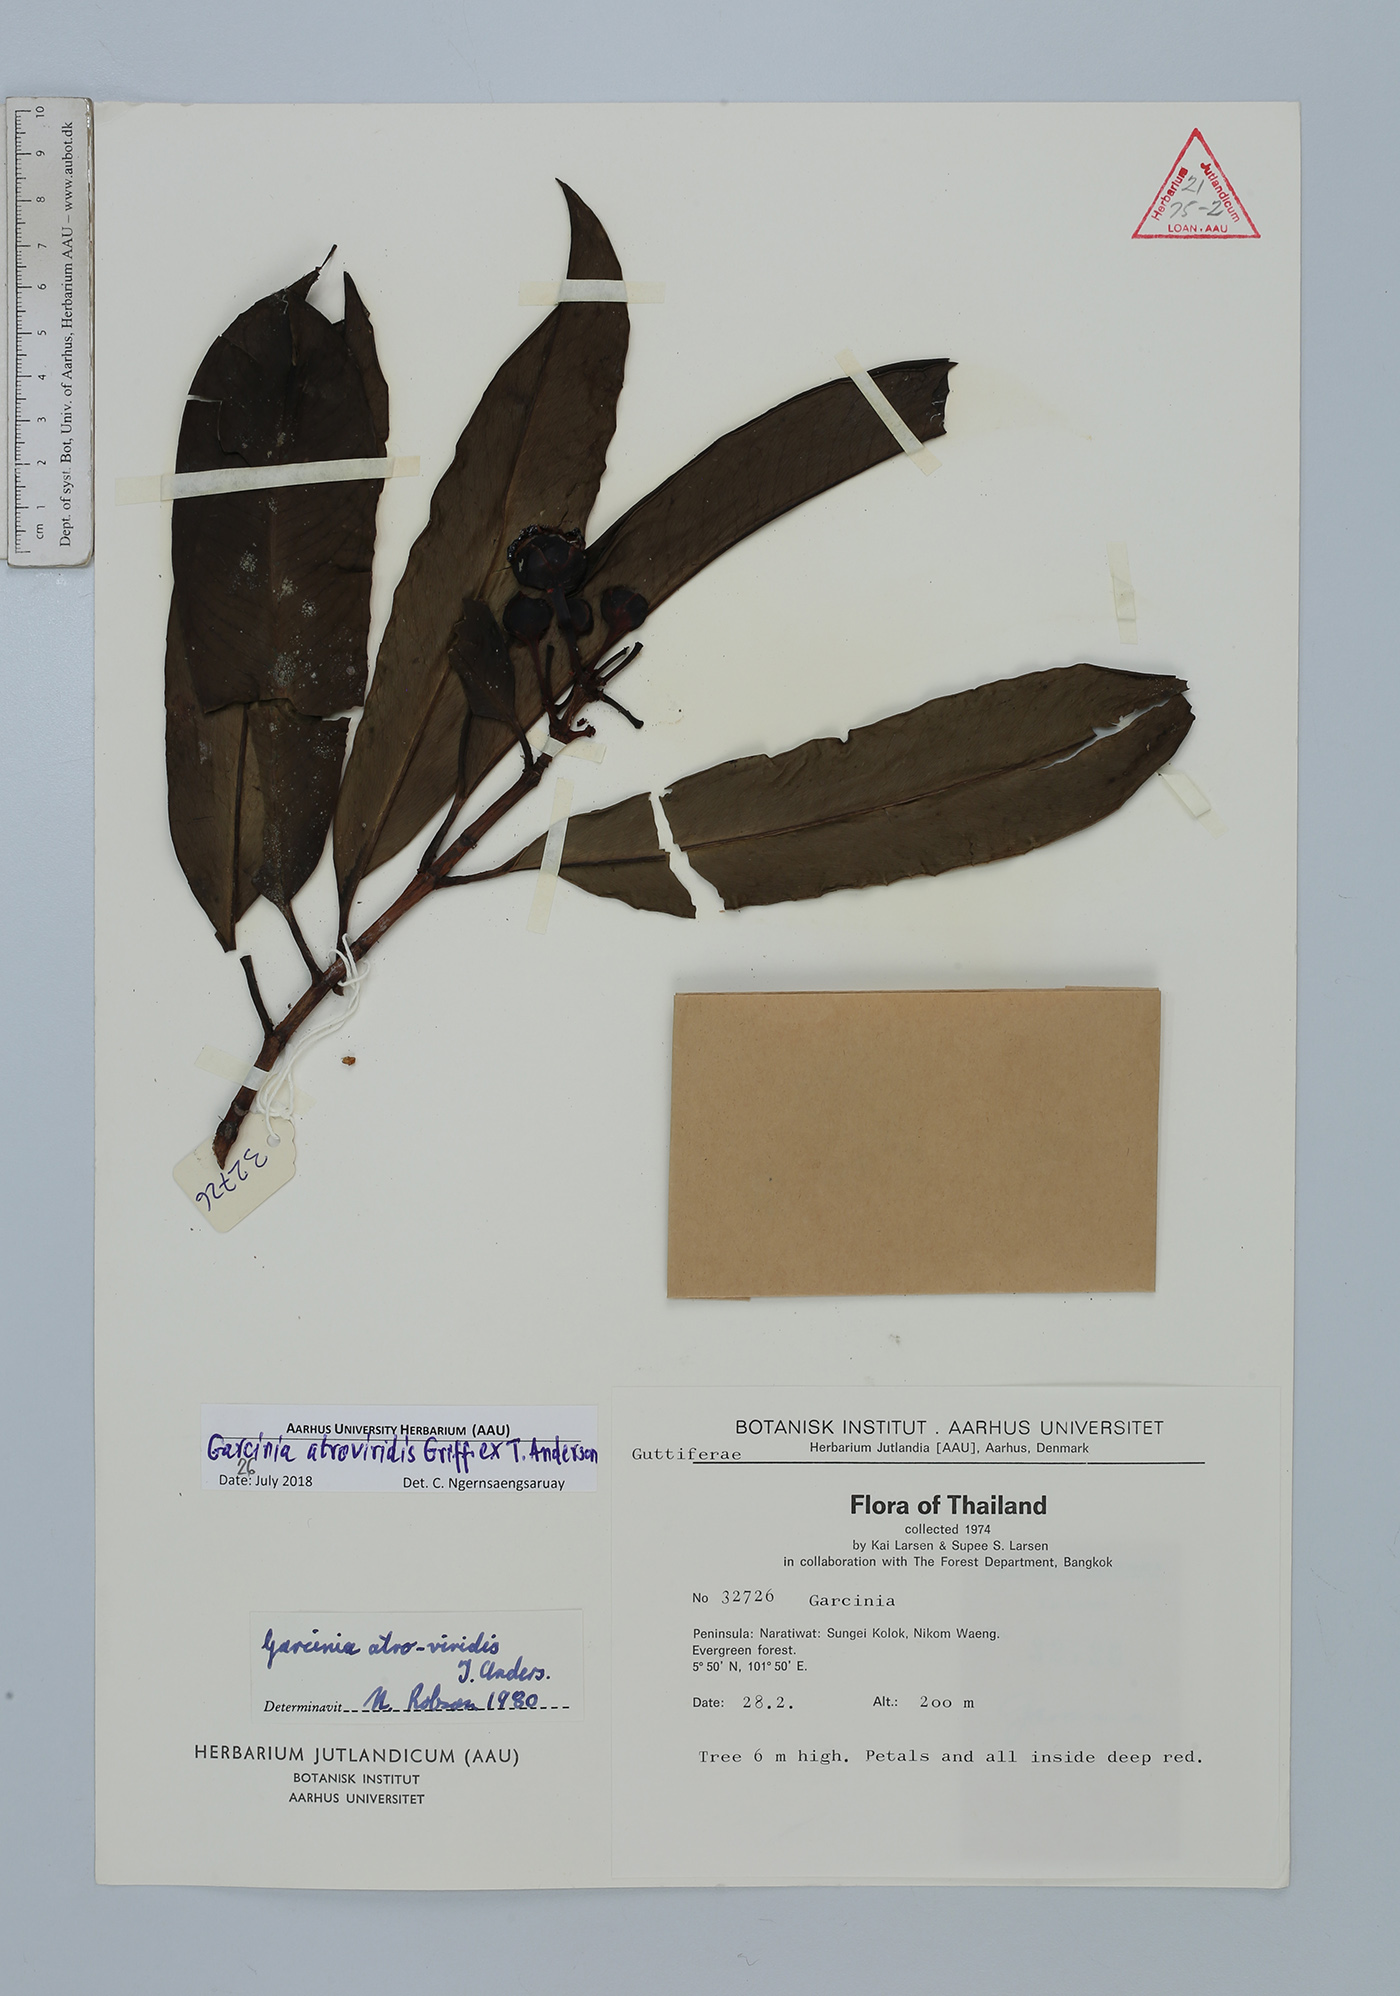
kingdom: Plantae
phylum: Tracheophyta
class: Magnoliopsida
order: Malpighiales
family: Clusiaceae
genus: Garcinia
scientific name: Garcinia atroviridis
